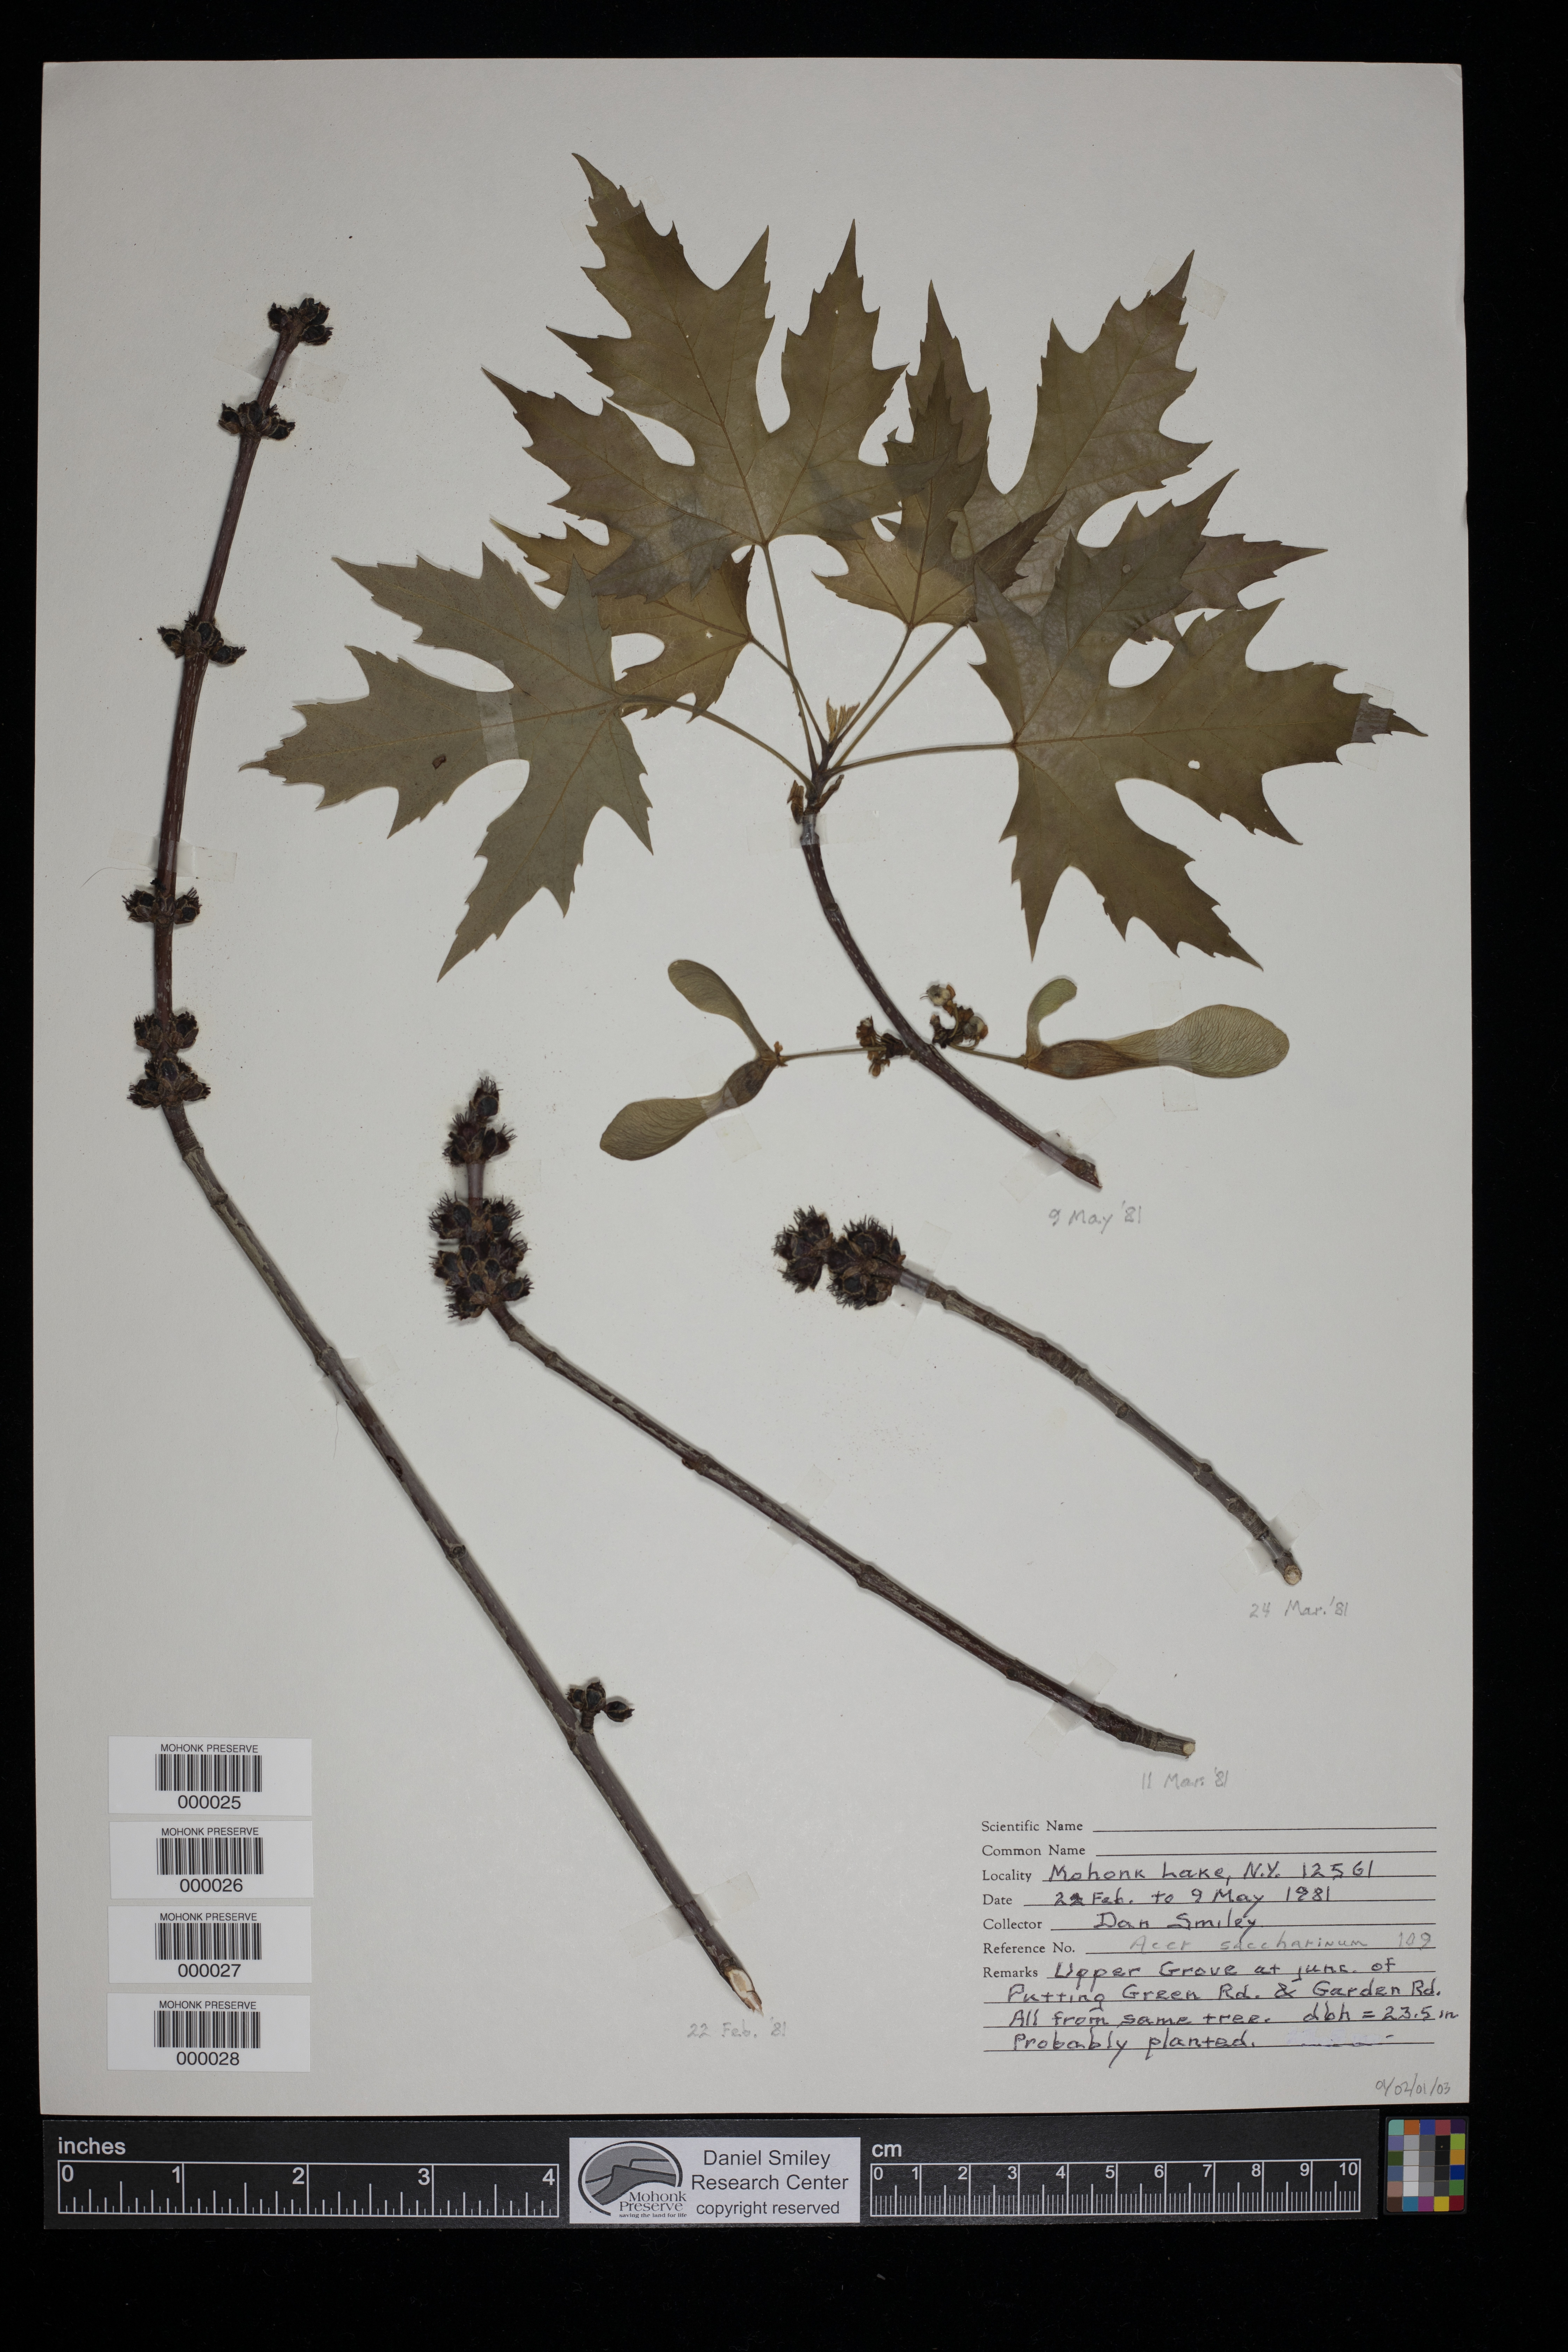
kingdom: Plantae
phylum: Tracheophyta
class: Magnoliopsida
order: Sapindales
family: Sapindaceae
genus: Acer
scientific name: Acer saccharinum
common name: Silver maple
